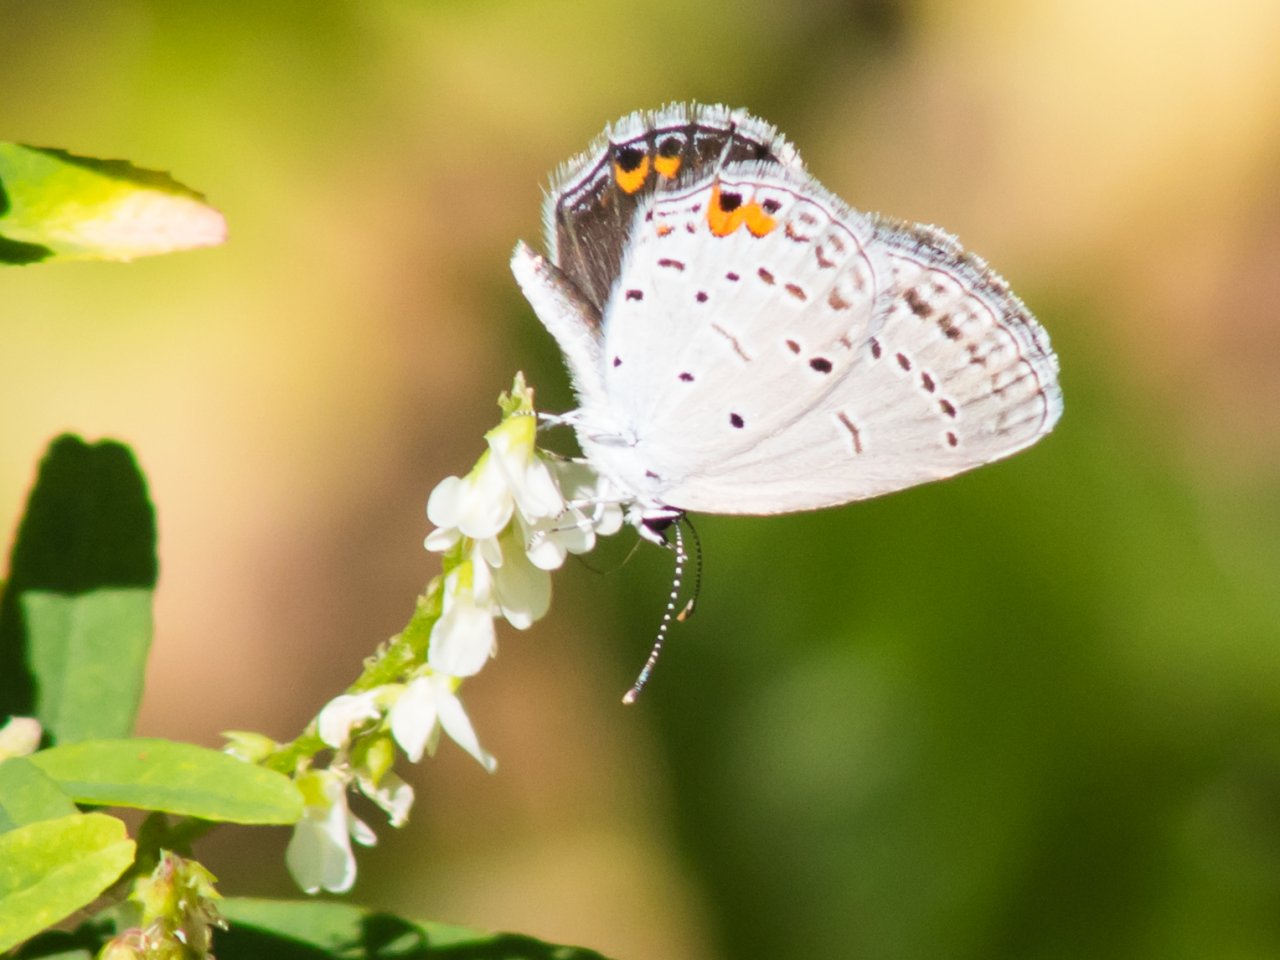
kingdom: Animalia
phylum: Arthropoda
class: Insecta
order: Lepidoptera
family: Lycaenidae
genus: Elkalyce
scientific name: Elkalyce comyntas
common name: Eastern Tailed-Blue
